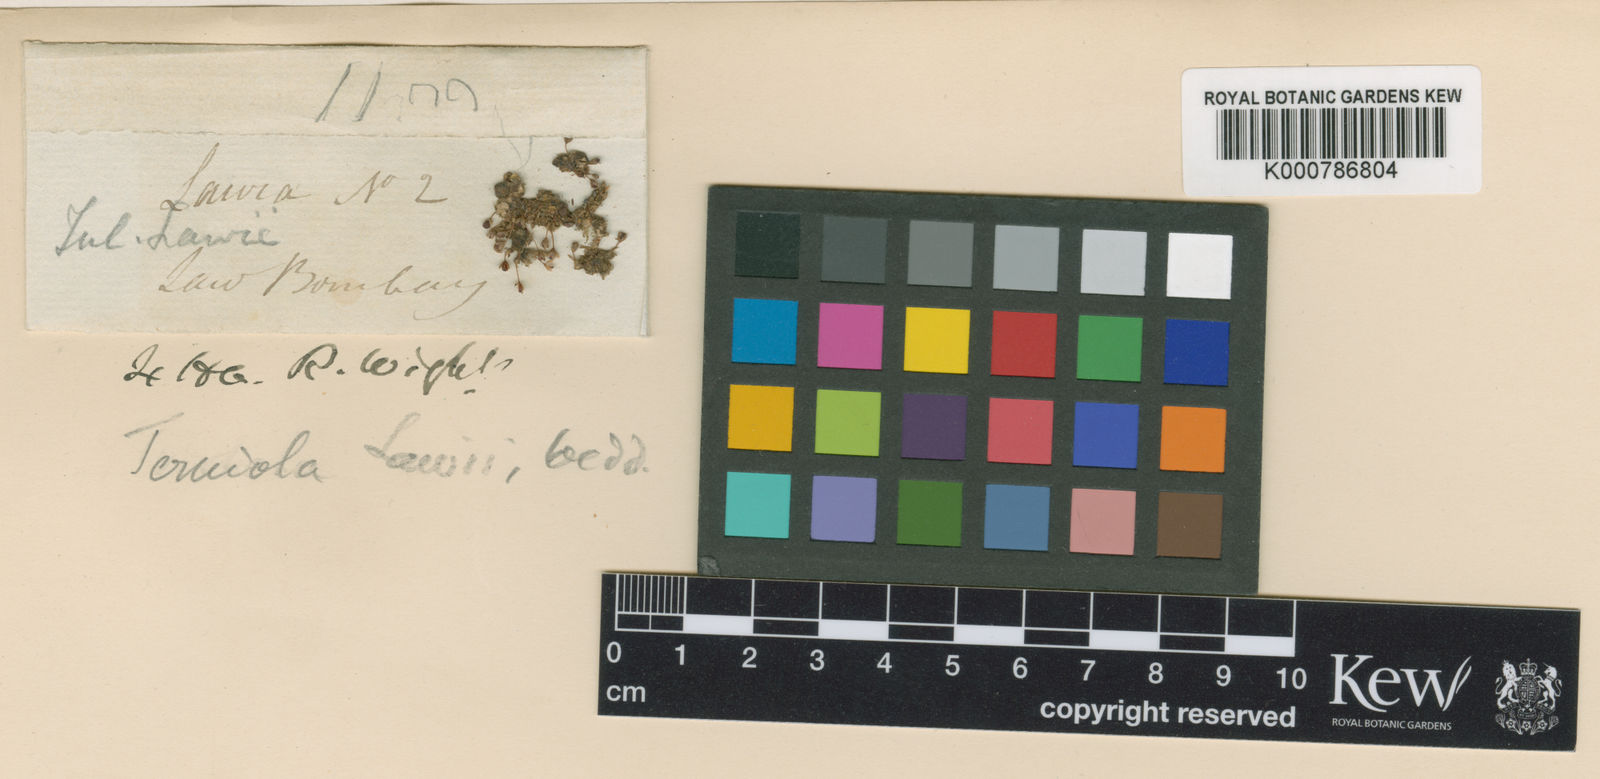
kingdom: Plantae
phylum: Tracheophyta
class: Magnoliopsida
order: Malpighiales
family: Podostemaceae
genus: Dalzellia
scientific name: Dalzellia ceylanica
